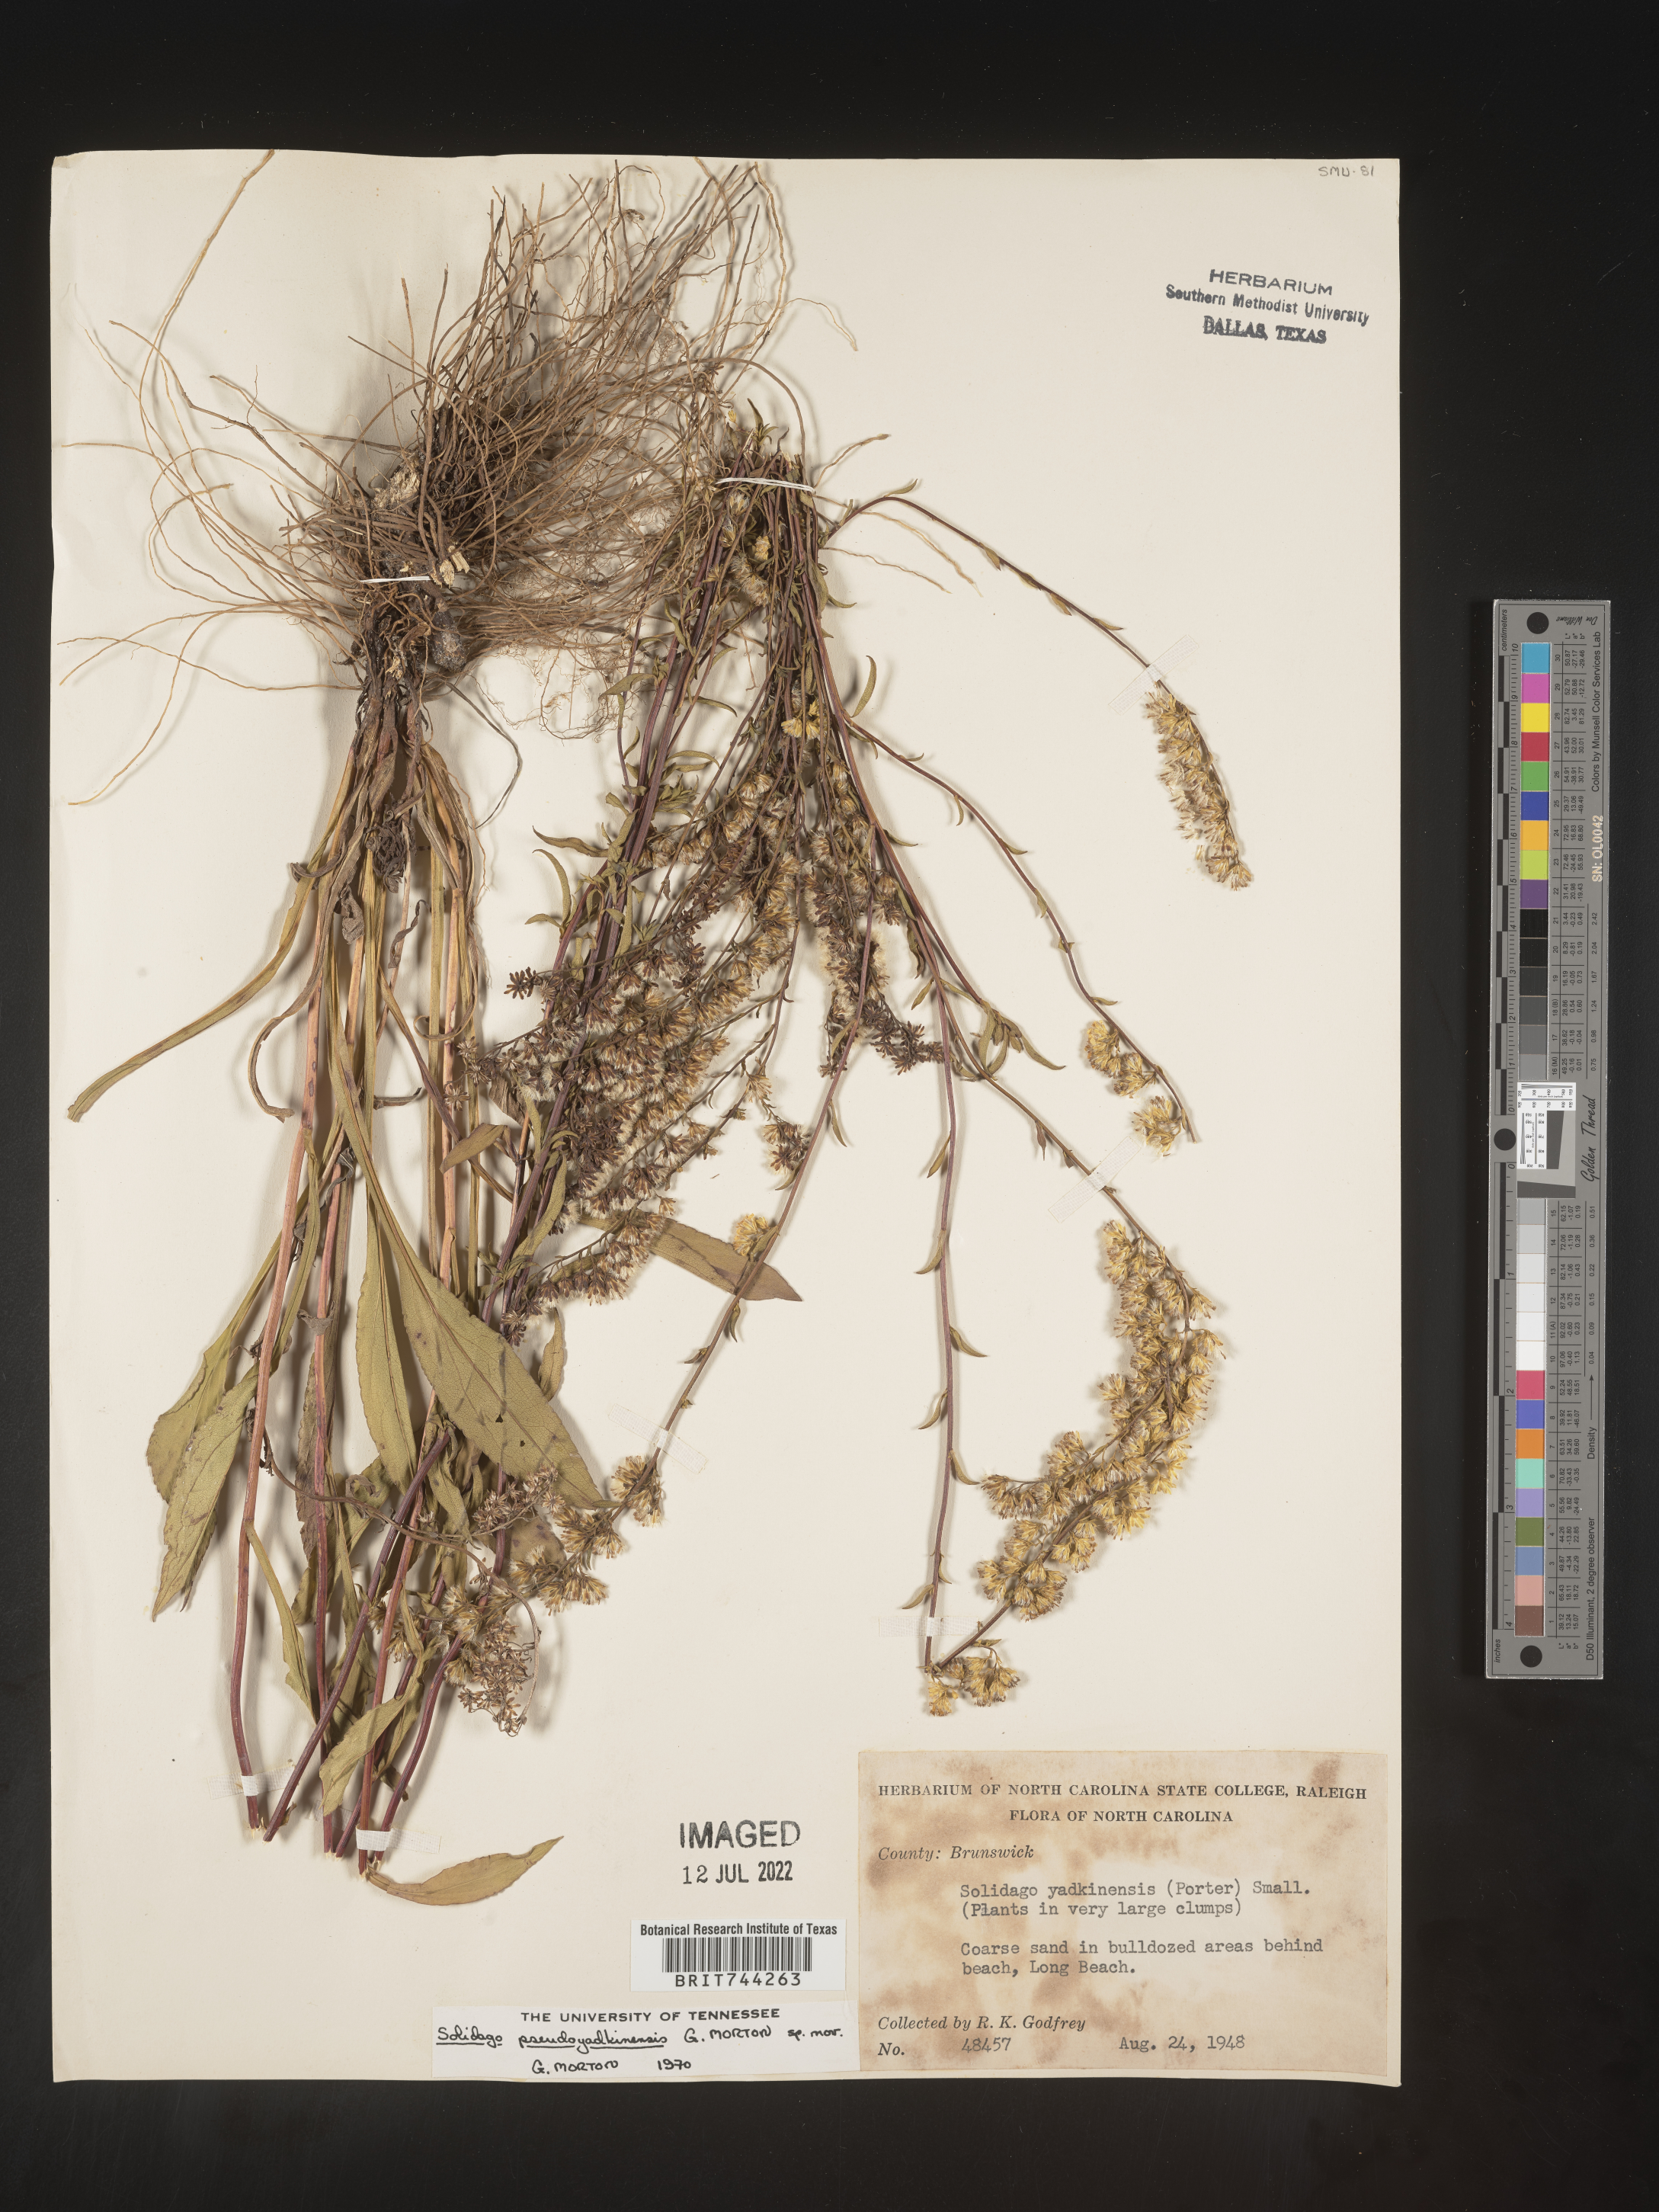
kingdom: Plantae
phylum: Tracheophyta
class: Magnoliopsida
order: Asterales
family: Asteraceae
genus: Solidago
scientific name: Solidago
